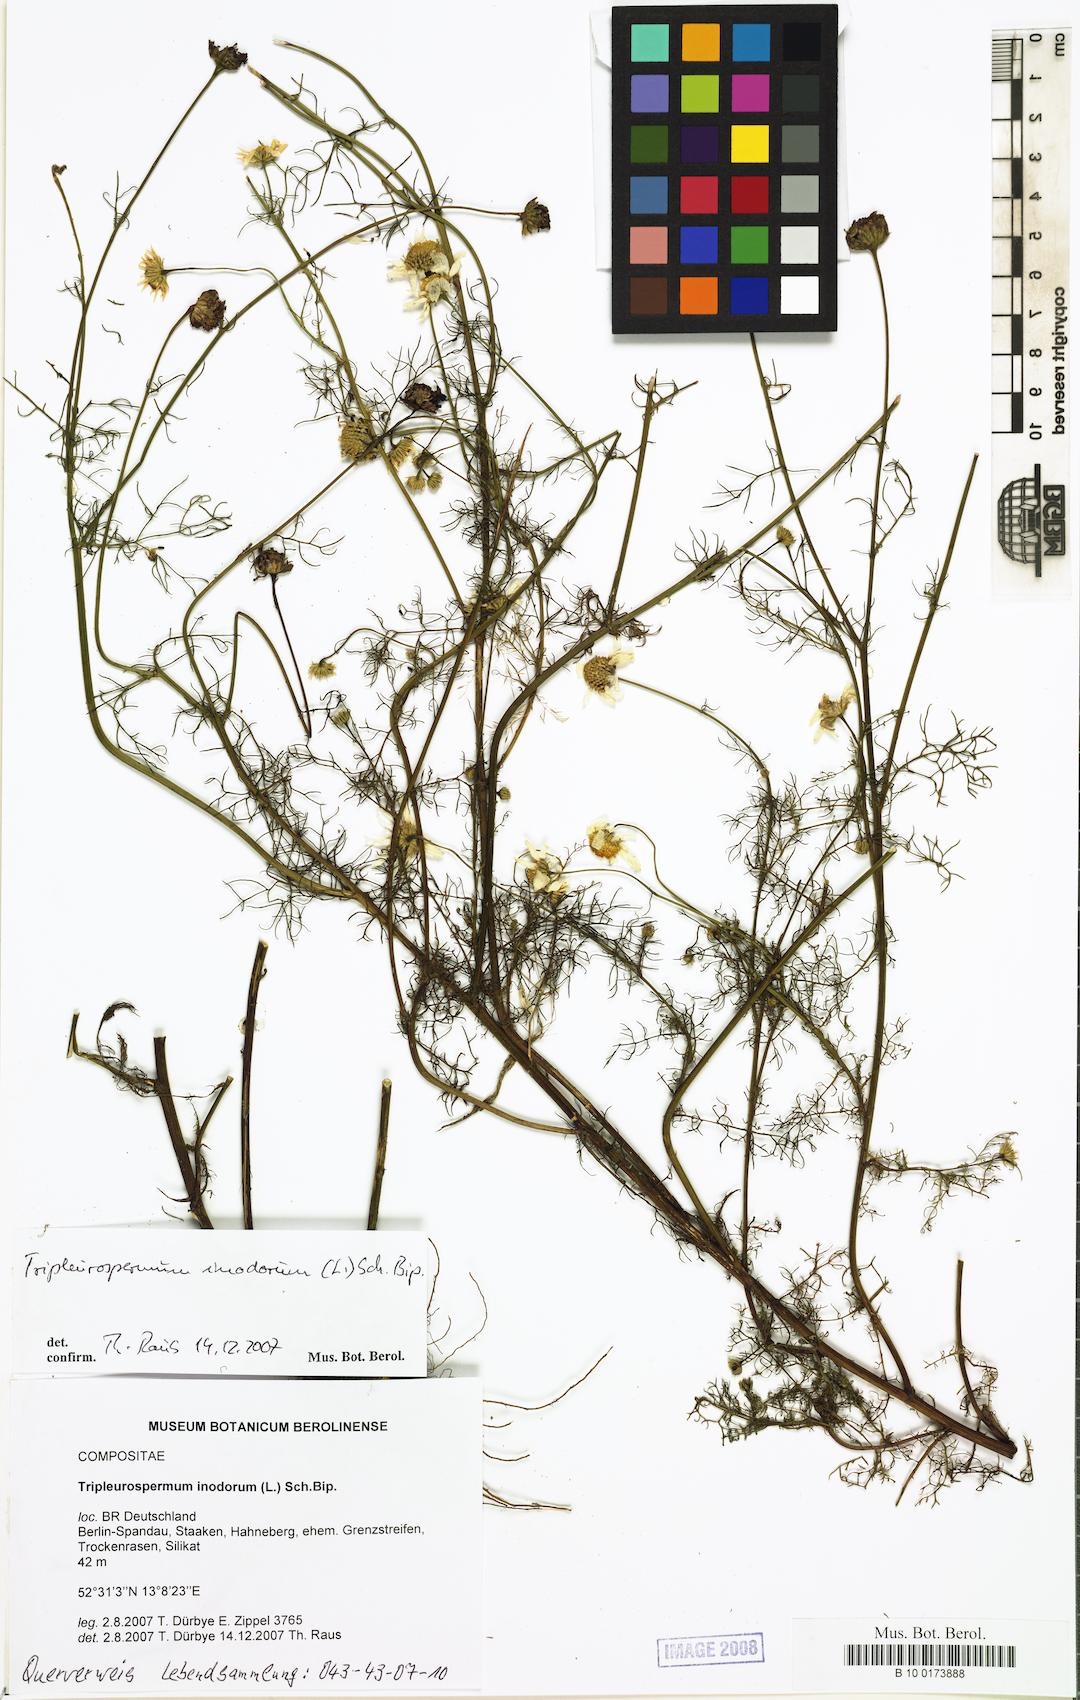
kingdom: Plantae
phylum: Tracheophyta
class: Magnoliopsida
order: Asterales
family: Asteraceae
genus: Tripleurospermum
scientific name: Tripleurospermum inodorum
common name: Scentless mayweed
